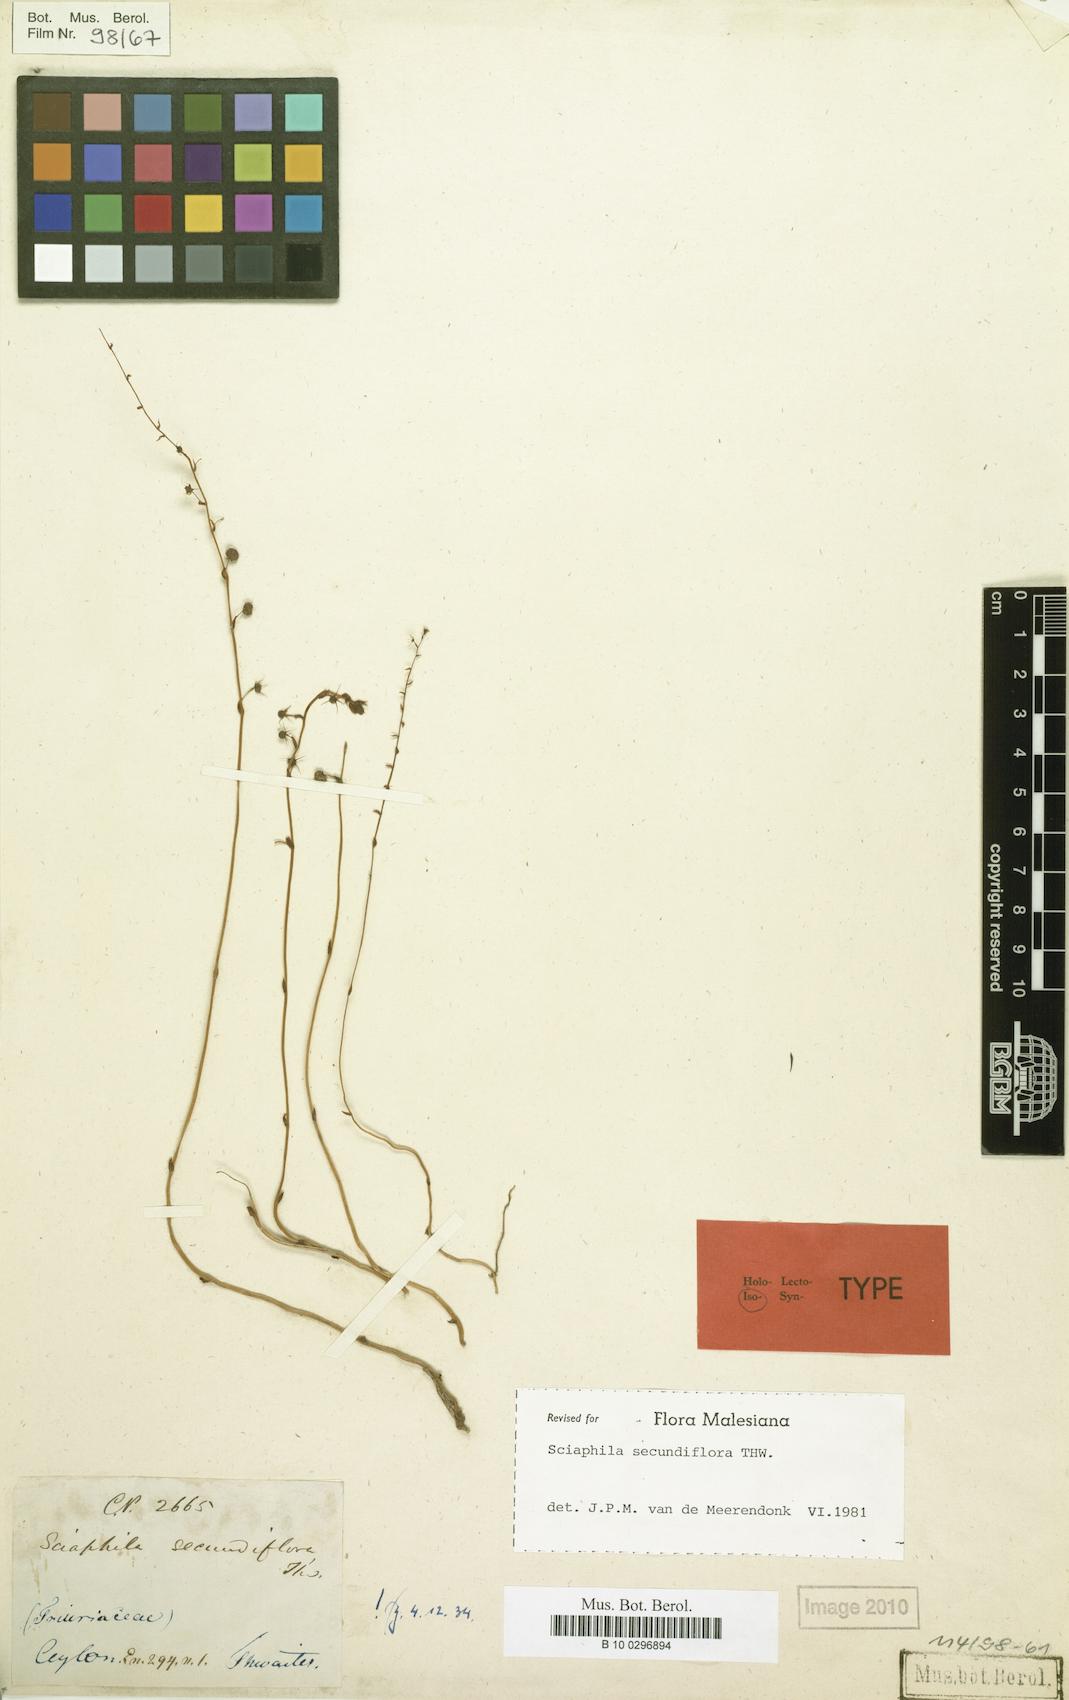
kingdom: Plantae
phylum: Tracheophyta
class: Liliopsida
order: Pandanales
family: Triuridaceae
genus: Sciaphila
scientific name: Sciaphila secundiflora
